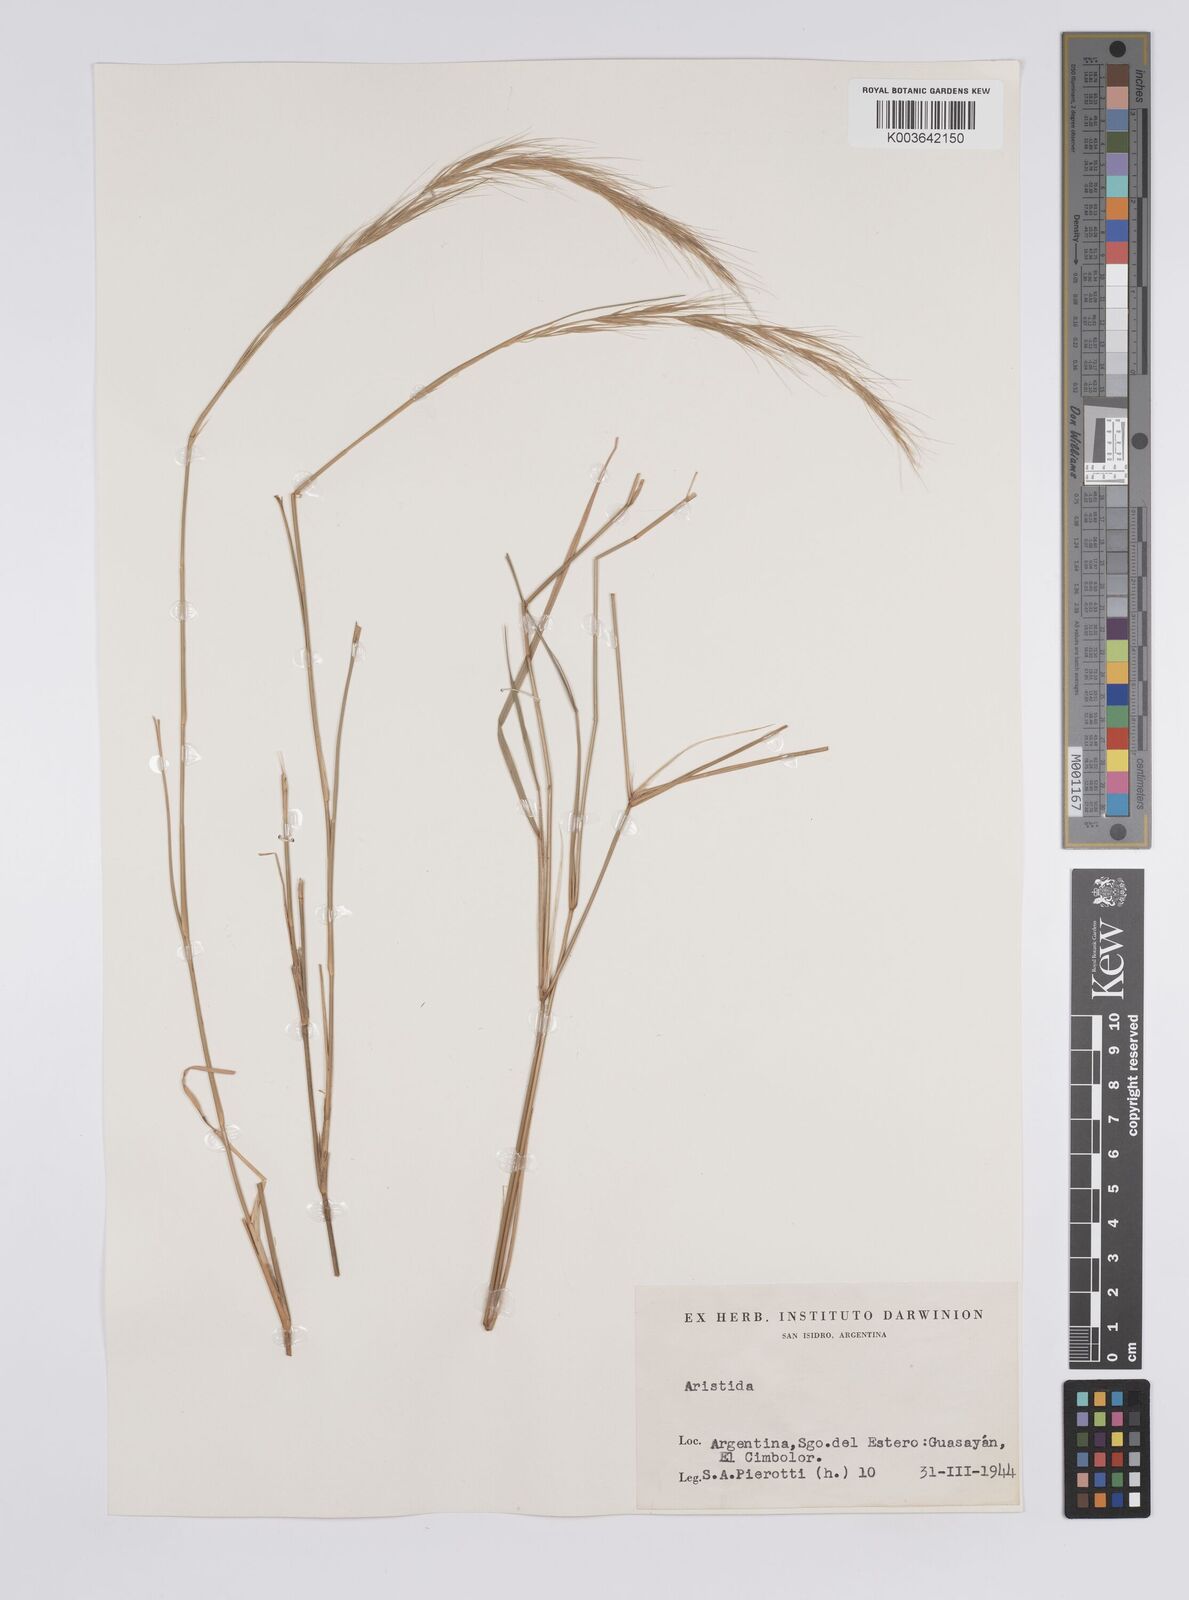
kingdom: Plantae
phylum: Tracheophyta
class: Liliopsida
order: Poales
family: Poaceae
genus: Aristida
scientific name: Aristida
